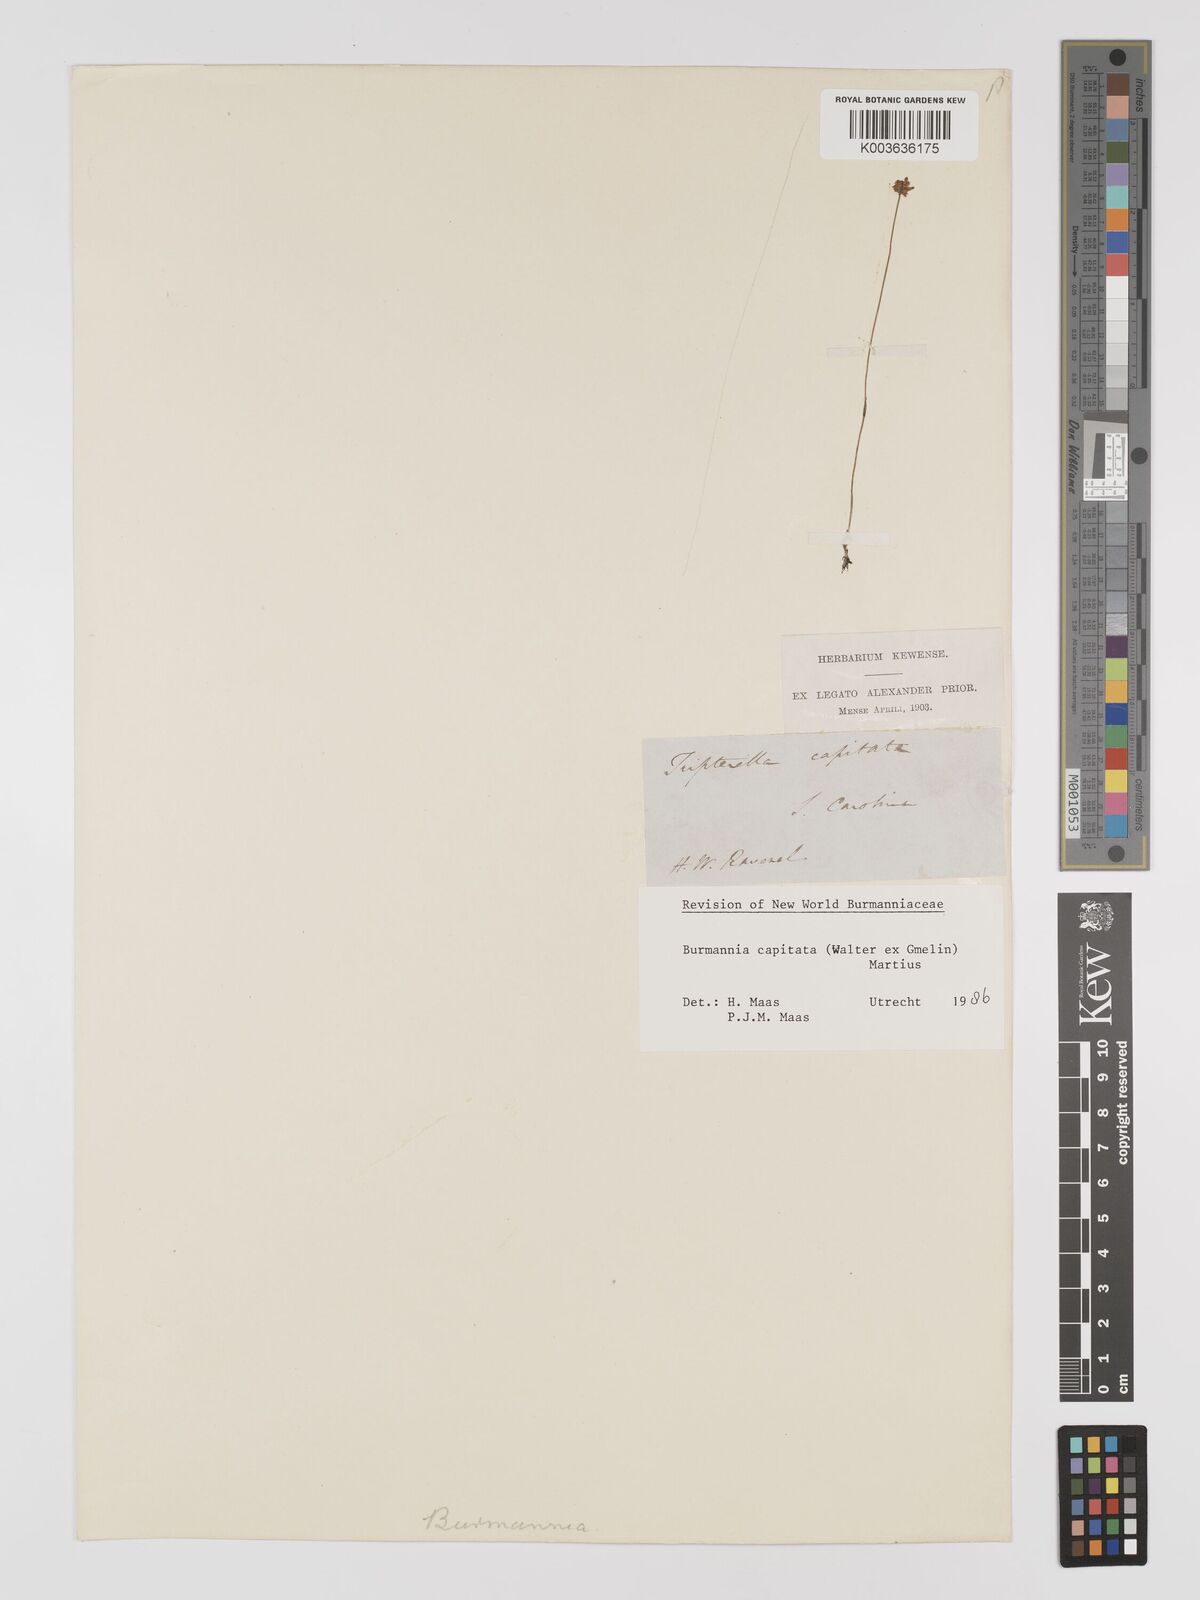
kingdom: Plantae
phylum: Tracheophyta
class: Liliopsida
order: Dioscoreales
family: Burmanniaceae
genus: Burmannia
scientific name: Burmannia capitata
